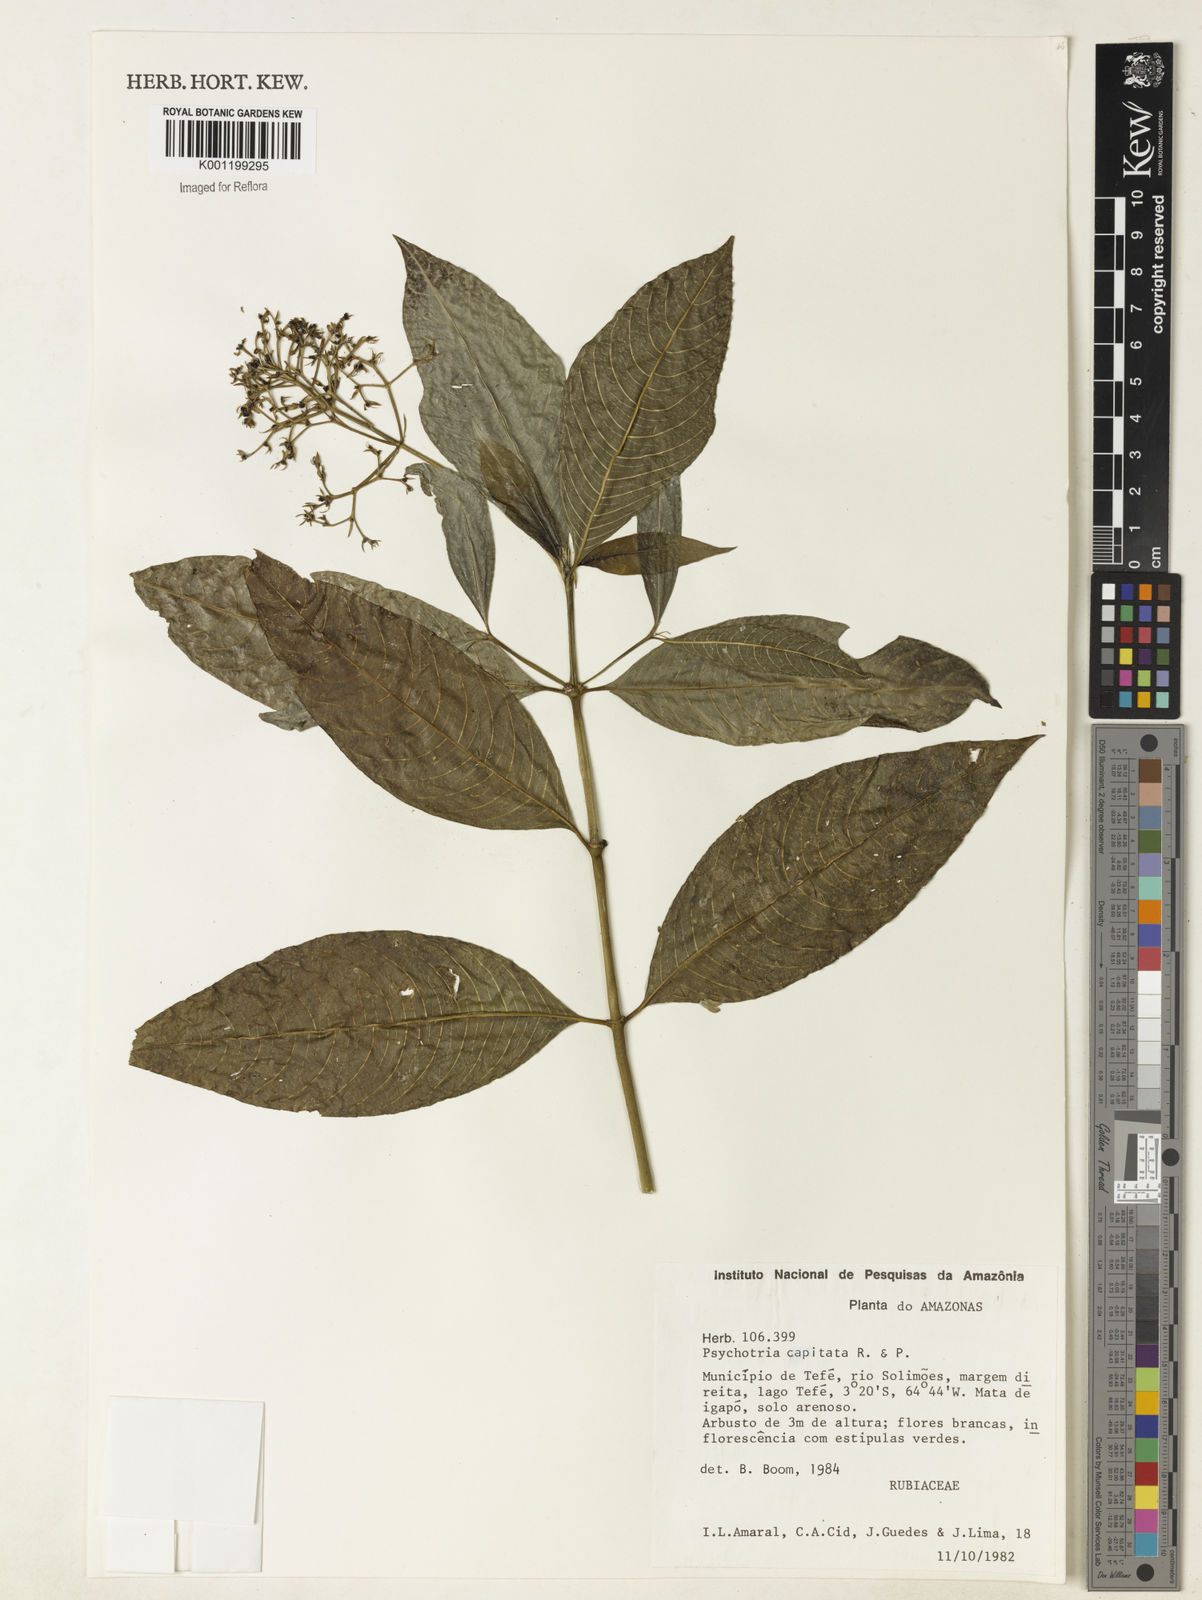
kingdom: Plantae
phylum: Tracheophyta
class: Magnoliopsida
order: Gentianales
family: Rubiaceae
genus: Palicourea
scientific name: Palicourea violacea
